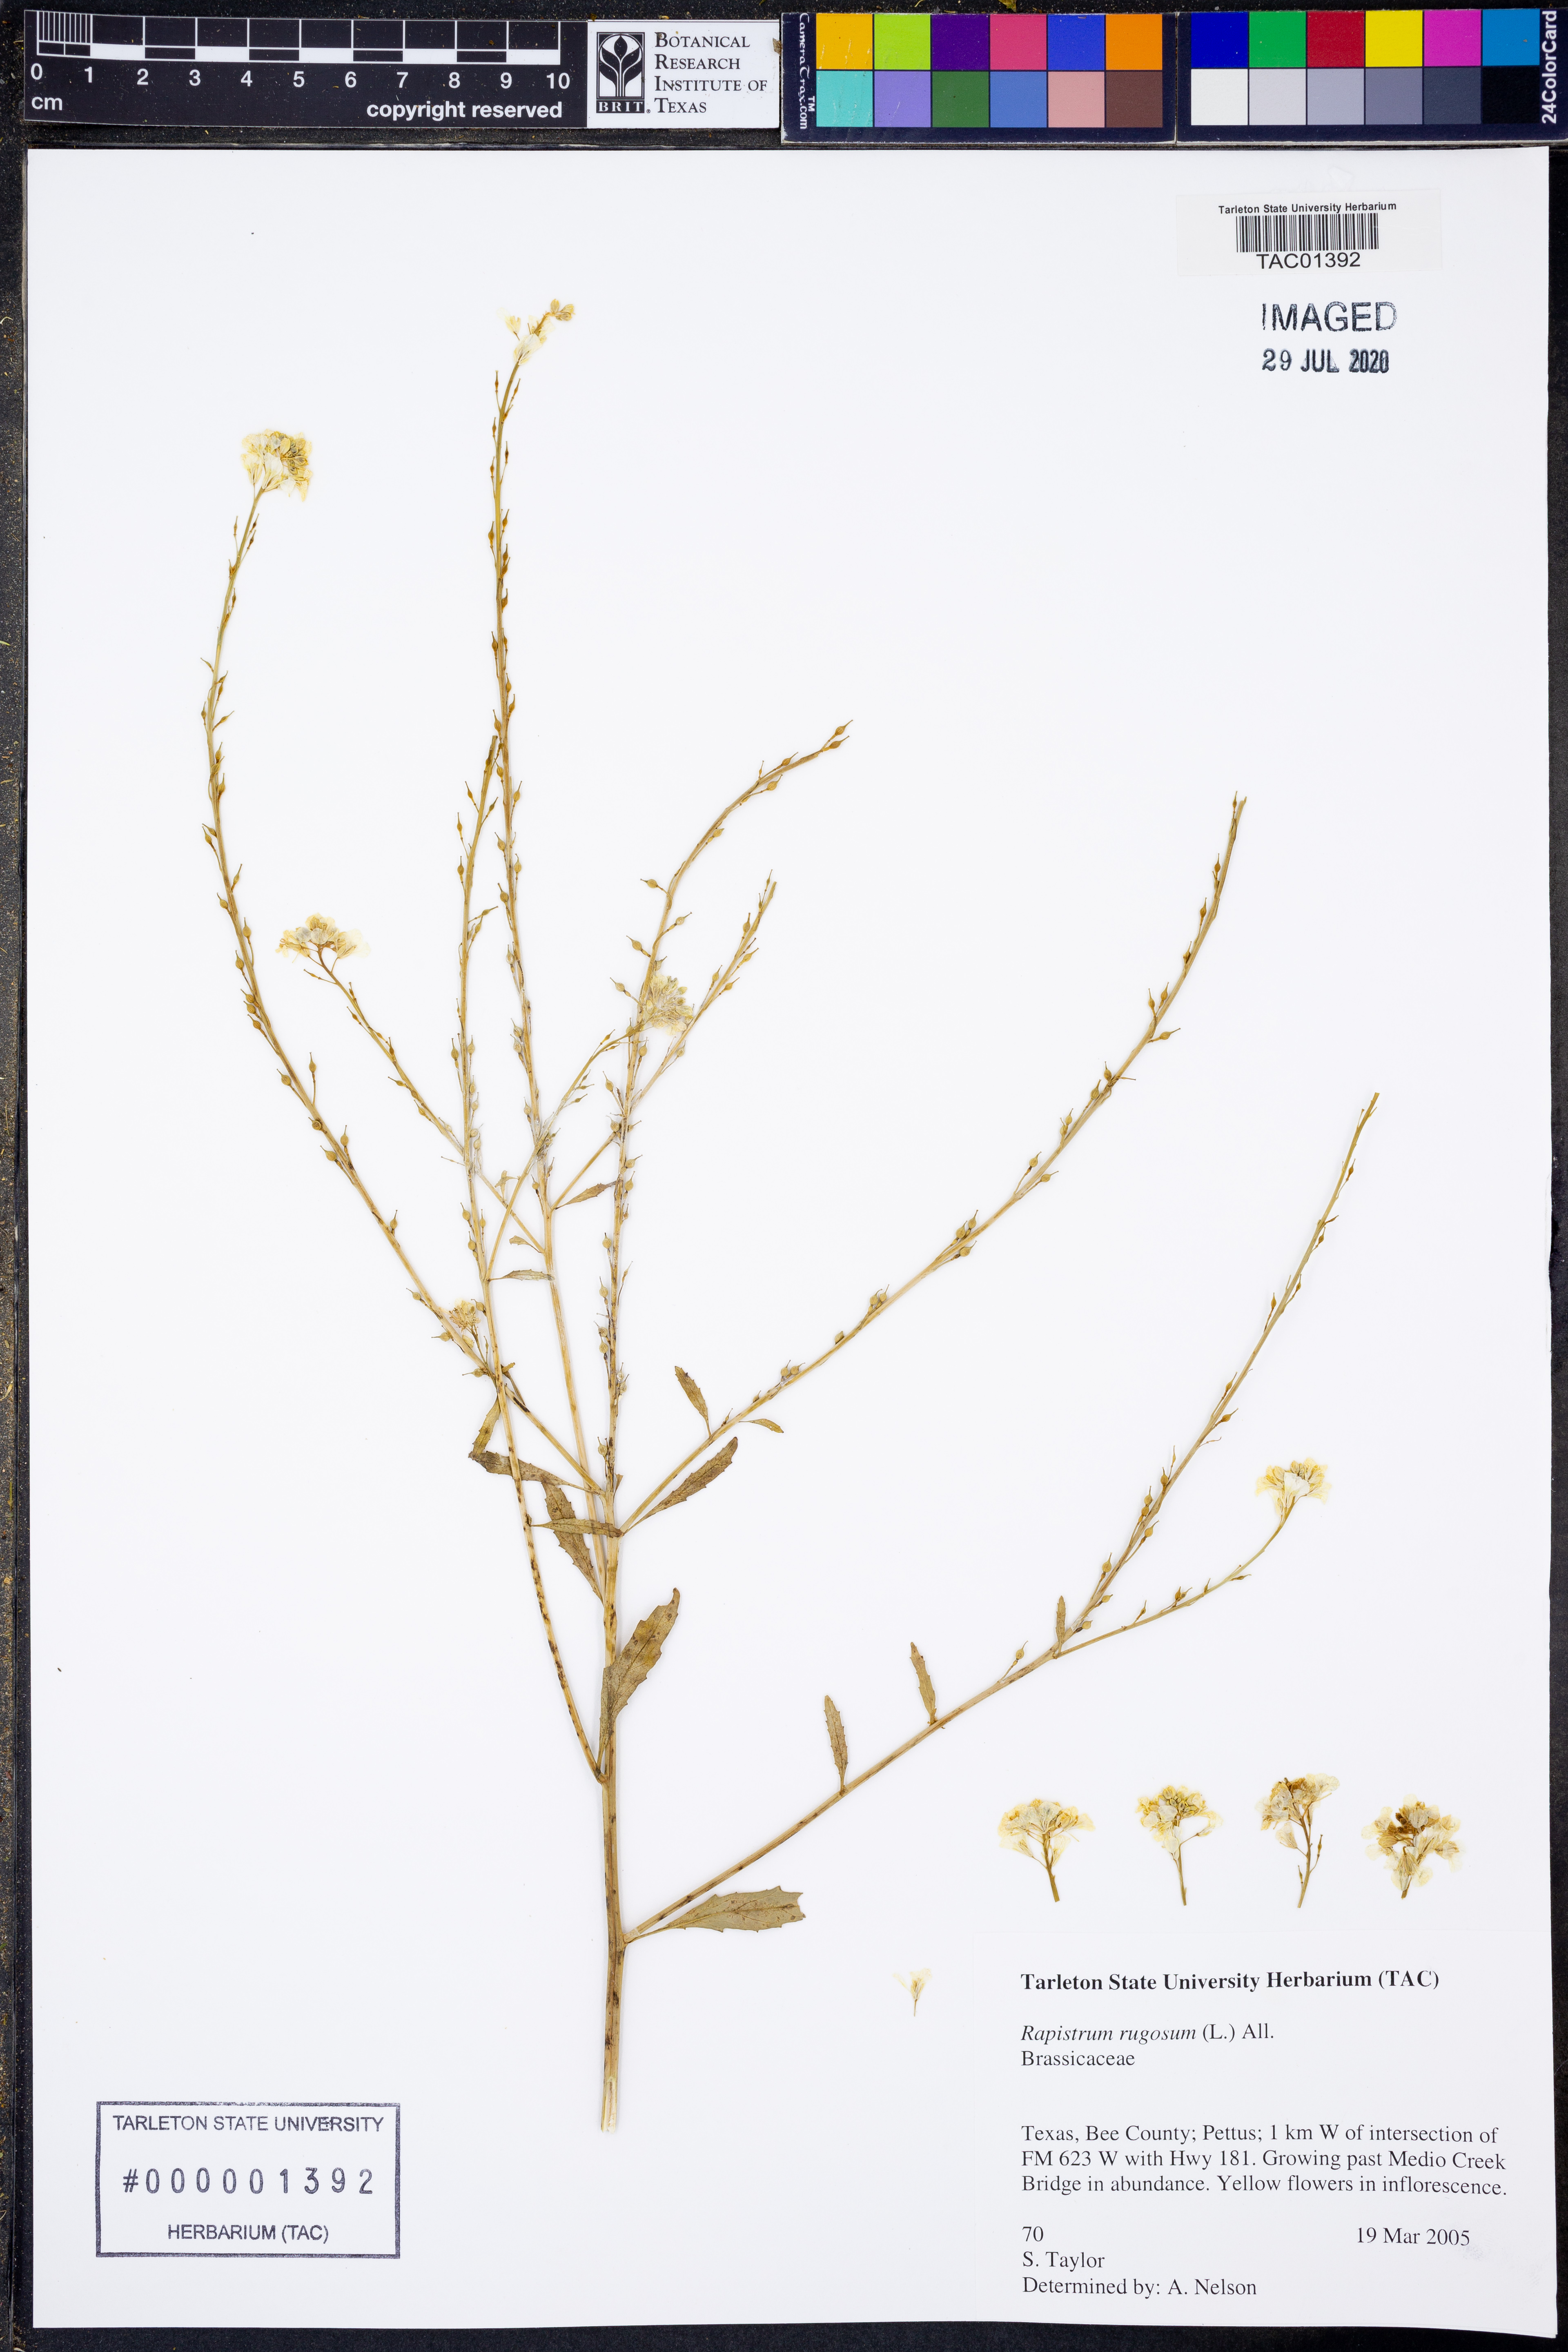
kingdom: Plantae
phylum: Tracheophyta
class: Magnoliopsida
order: Brassicales
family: Brassicaceae
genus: Rapistrum
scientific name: Rapistrum rugosum
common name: Annual bastardcabbage
